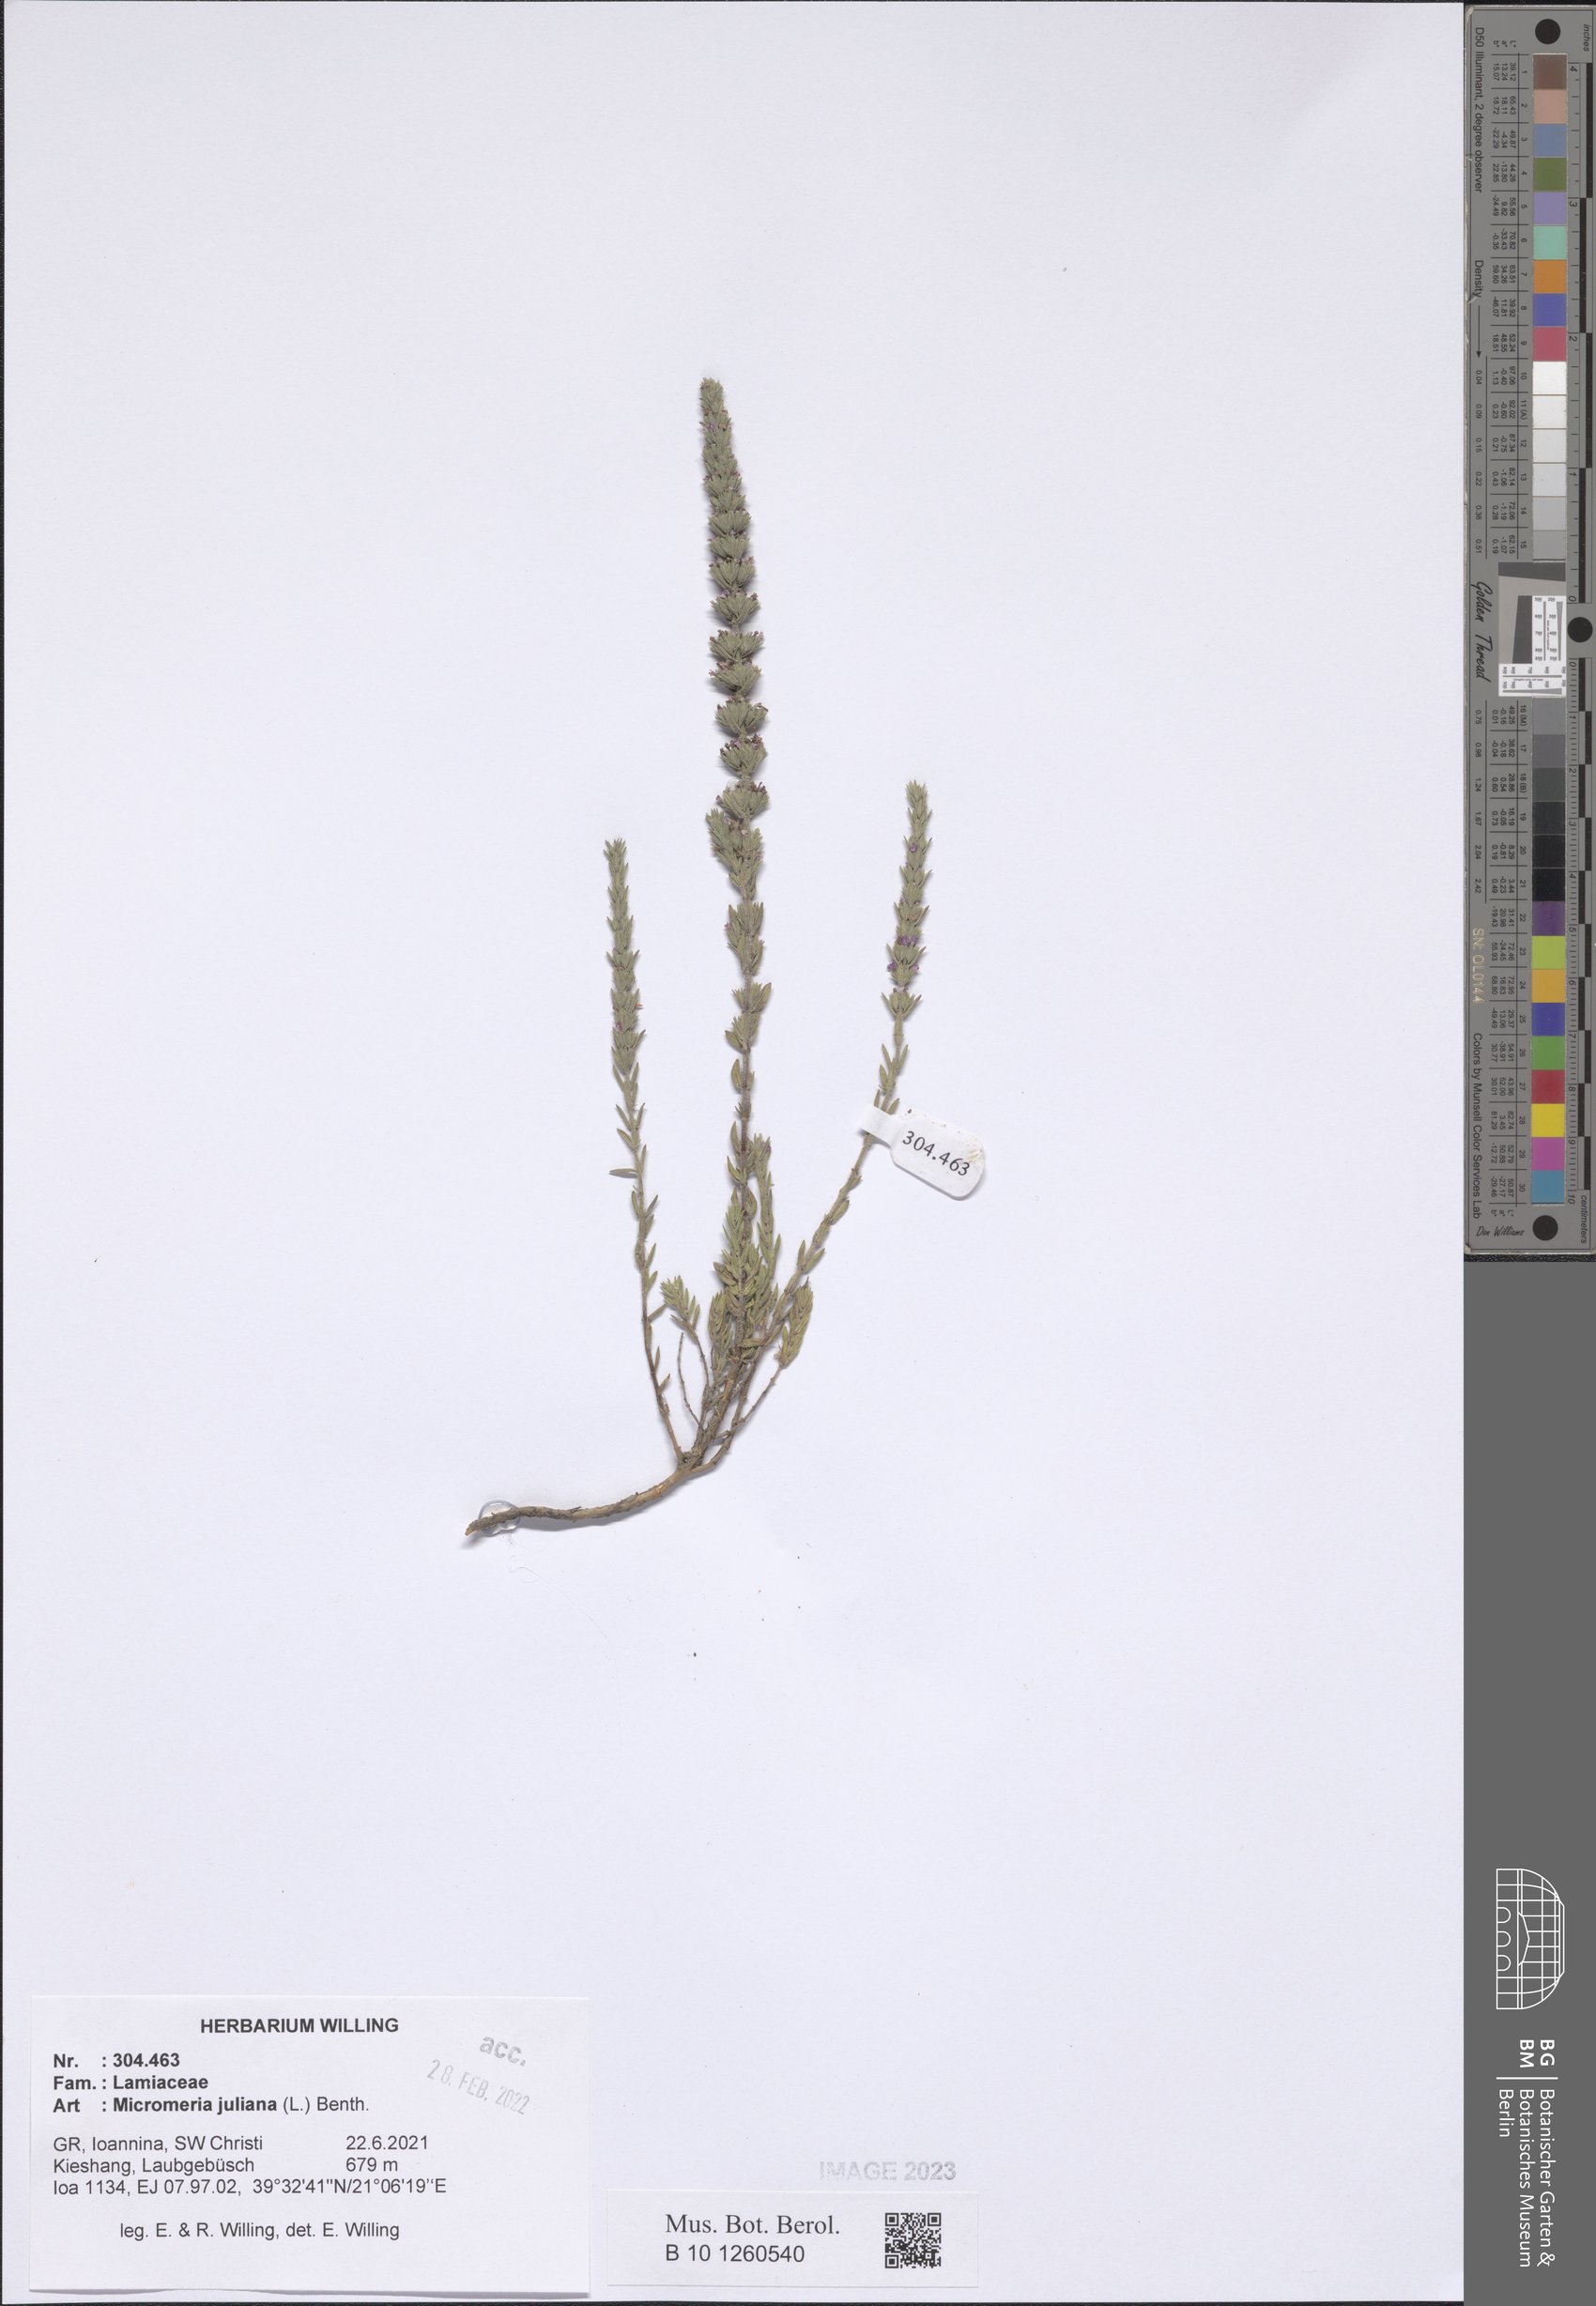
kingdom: Plantae
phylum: Tracheophyta
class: Magnoliopsida
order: Lamiales
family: Lamiaceae
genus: Micromeria
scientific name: Micromeria juliana
